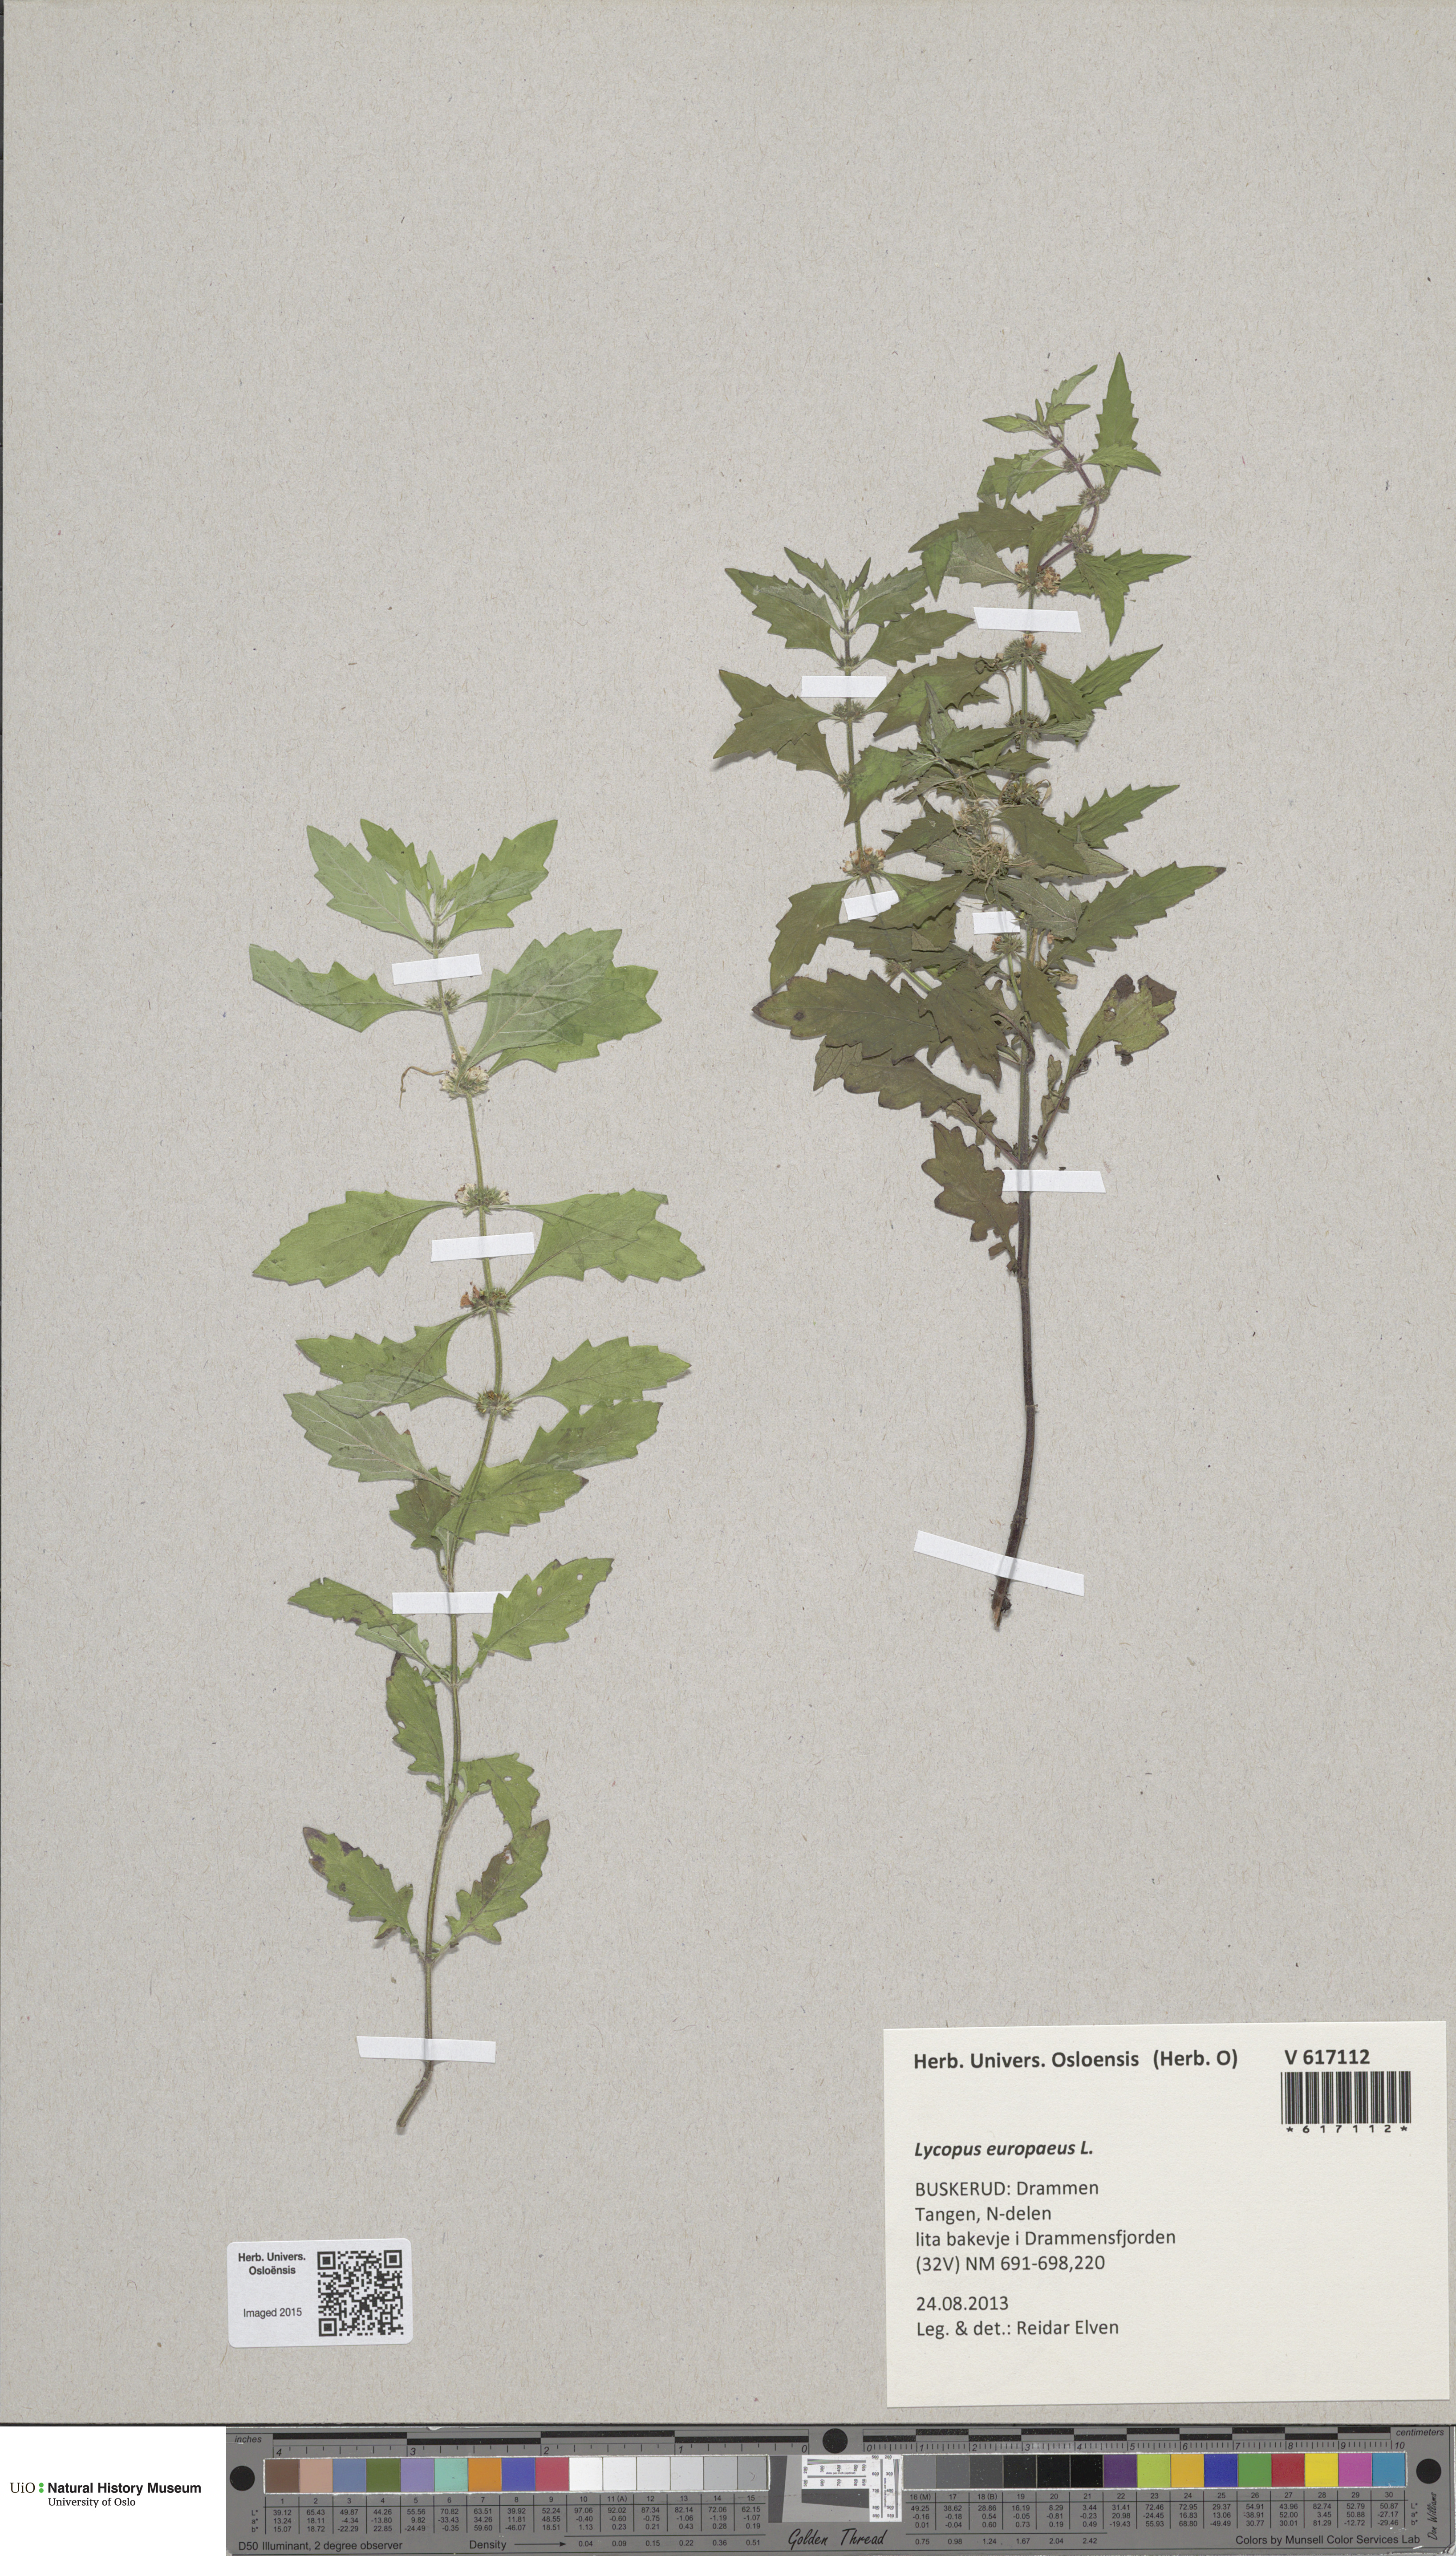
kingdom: Plantae
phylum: Tracheophyta
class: Magnoliopsida
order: Lamiales
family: Lamiaceae
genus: Lycopus
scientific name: Lycopus europaeus
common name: European bugleweed
